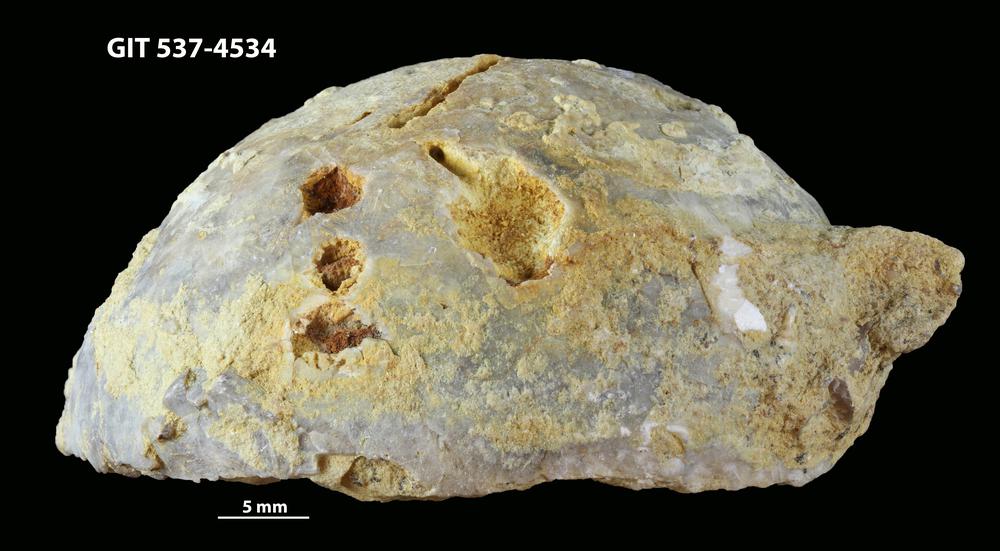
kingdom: Animalia
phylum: Echinodermata
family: Echinosphaeritidae
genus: Echinosphaerites
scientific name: Echinosphaerites Echinus aurantium
